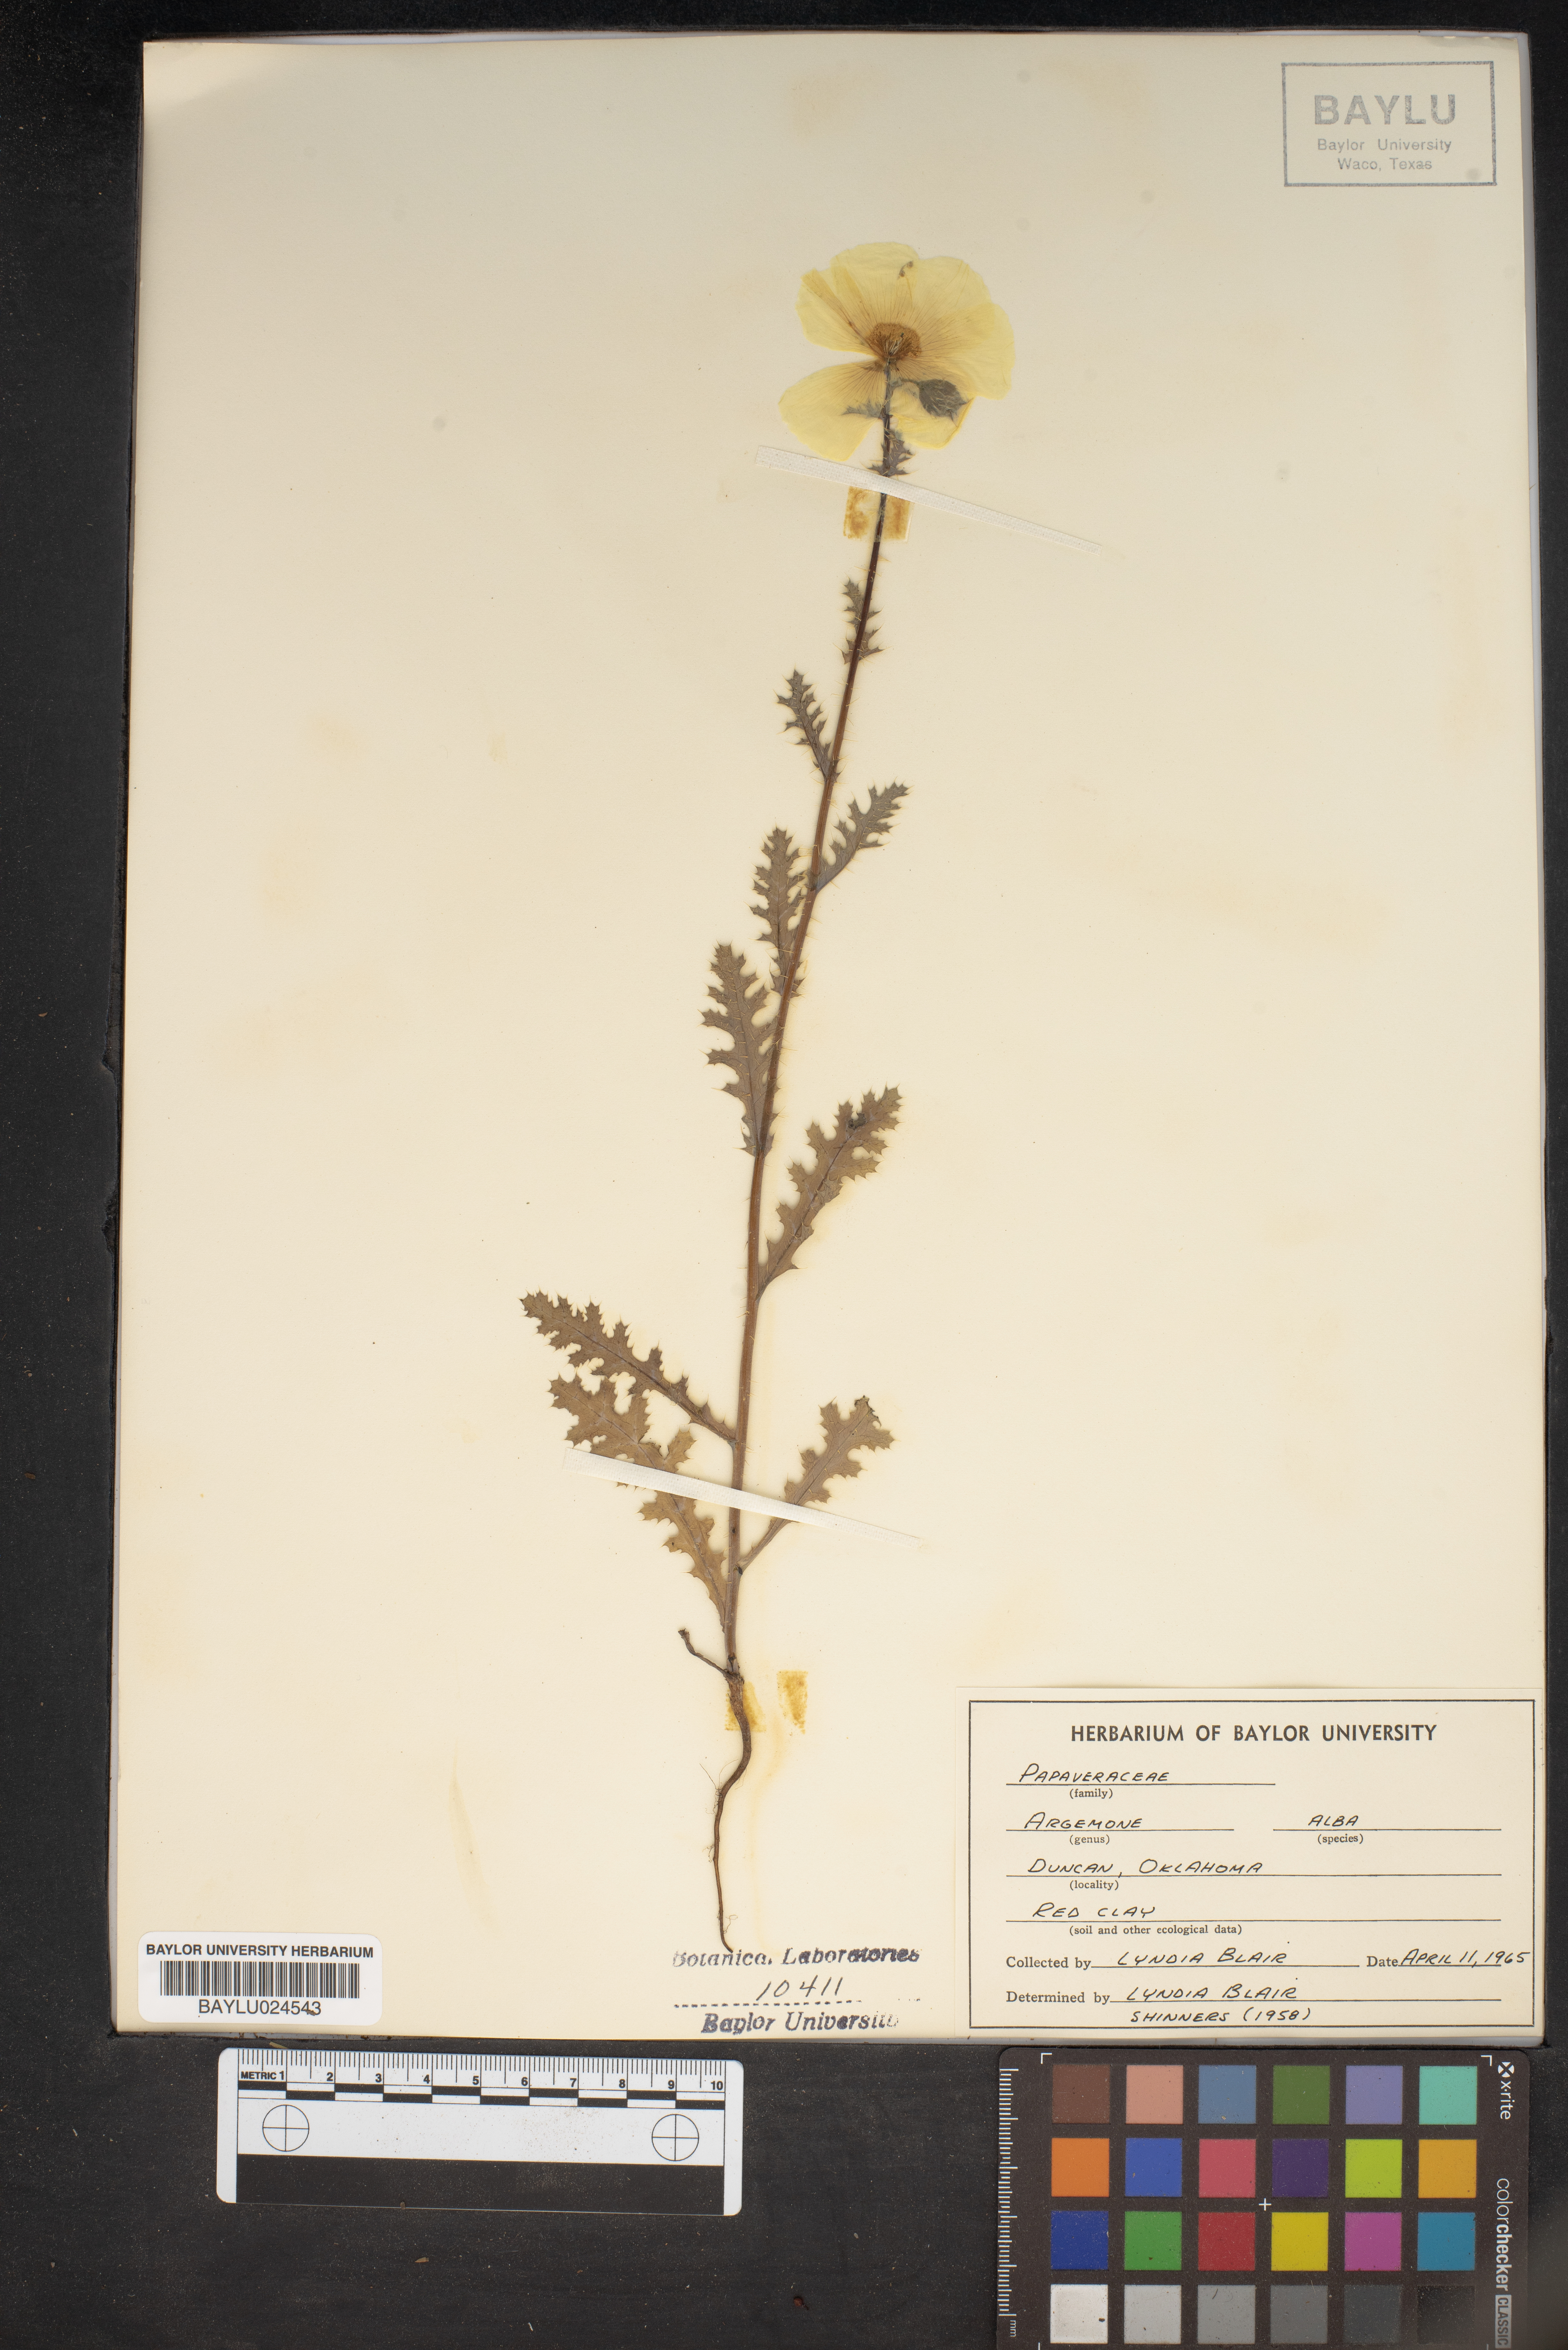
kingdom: Plantae
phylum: Tracheophyta
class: Magnoliopsida
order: Ranunculales
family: Papaveraceae
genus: Argemone
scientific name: Argemone albiflora
